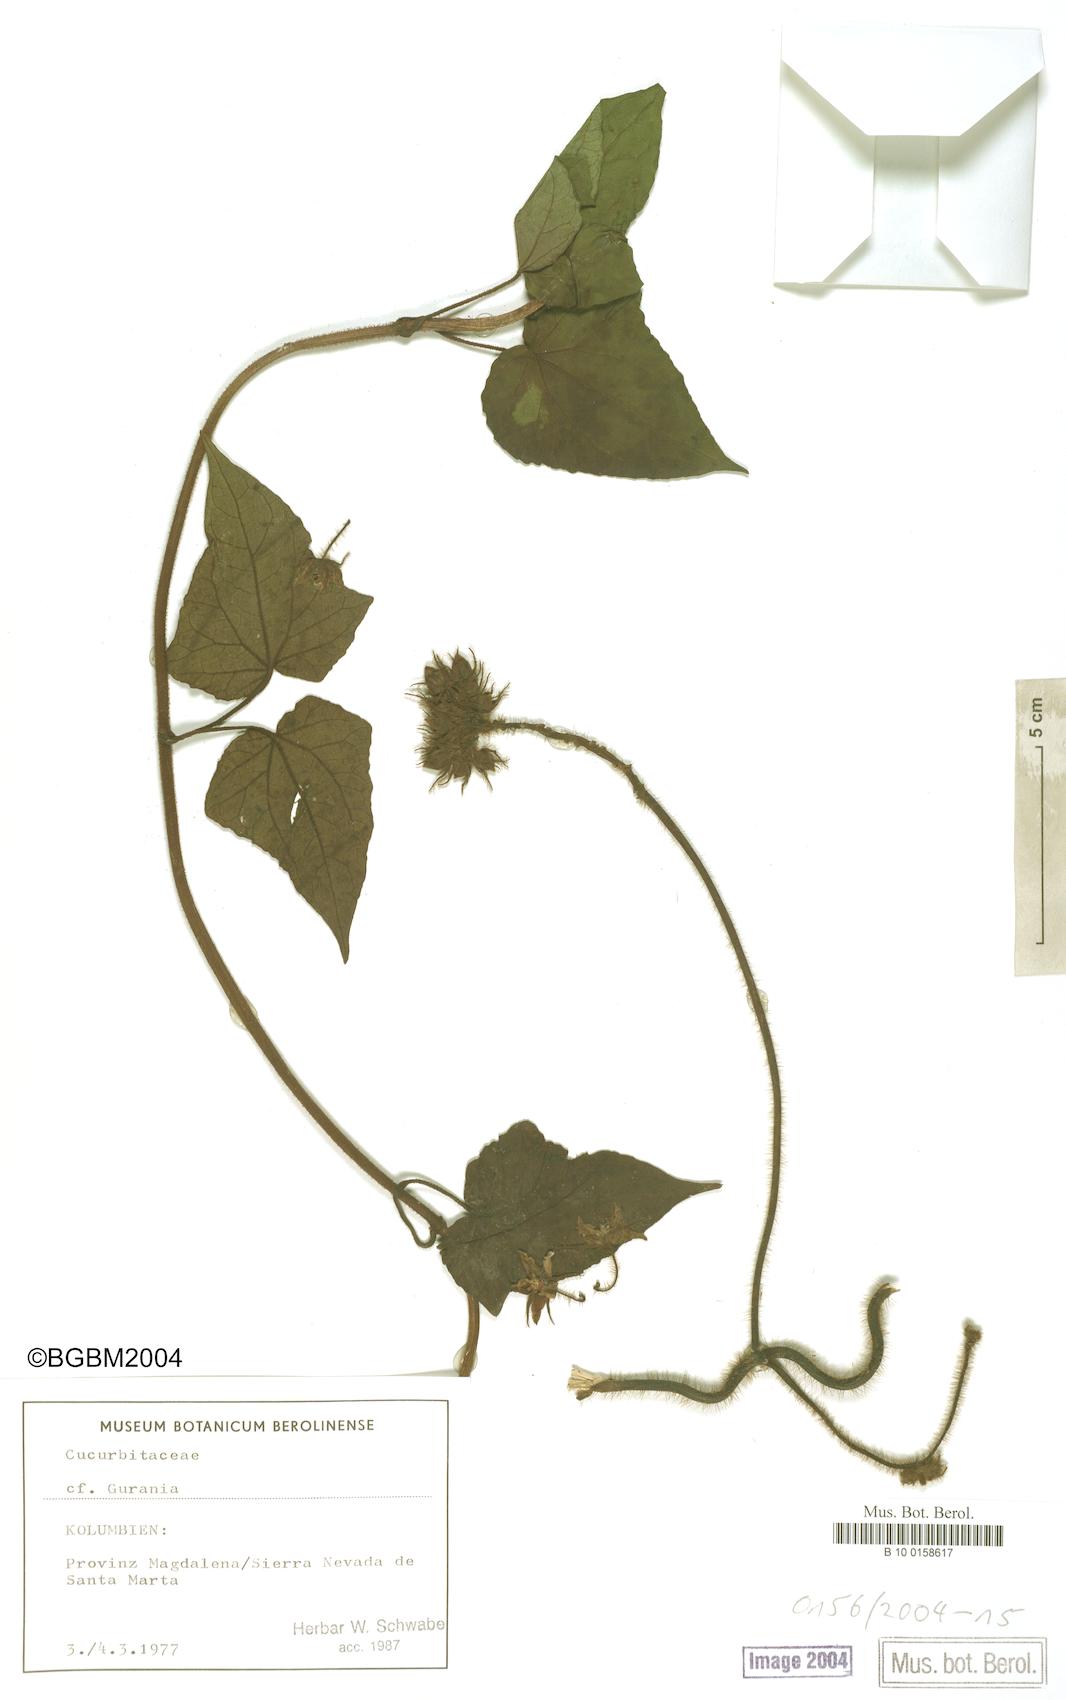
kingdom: Plantae
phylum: Tracheophyta
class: Magnoliopsida
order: Gentianales
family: Apocynaceae
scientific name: Apocynaceae
